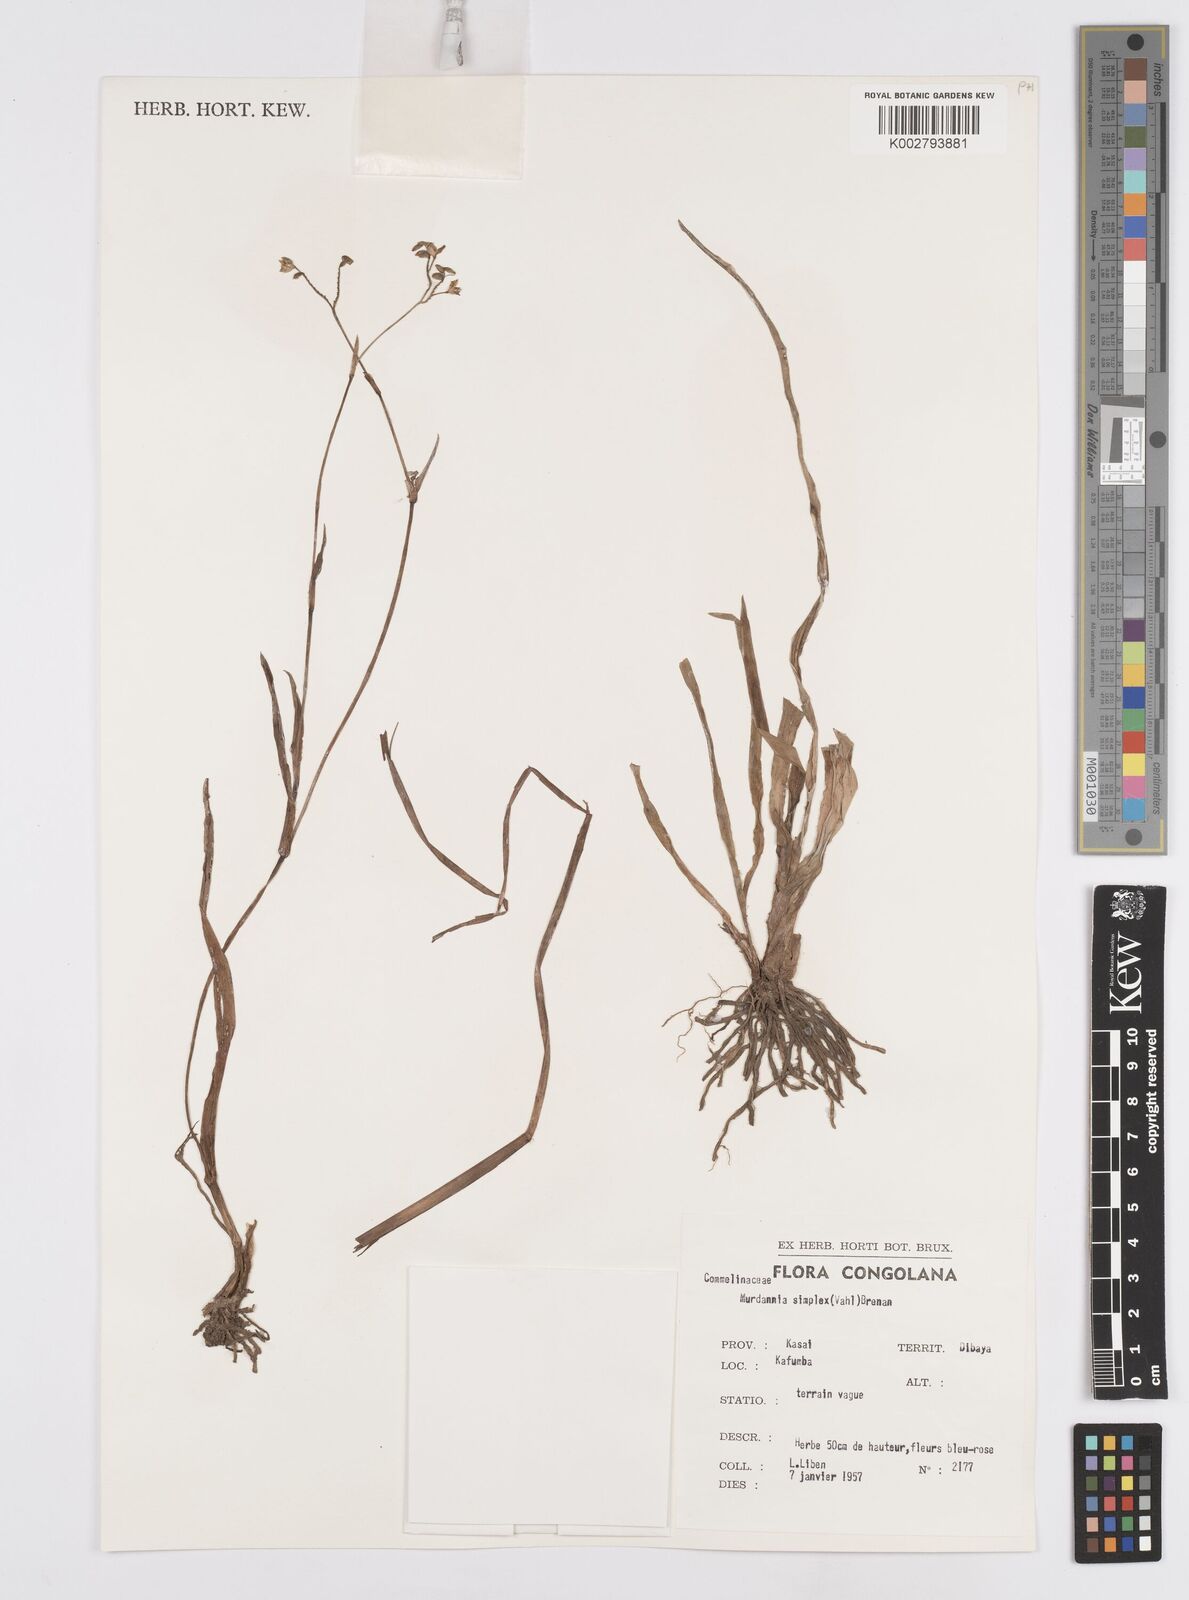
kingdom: Plantae
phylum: Tracheophyta
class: Liliopsida
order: Commelinales
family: Commelinaceae
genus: Murdannia
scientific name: Murdannia simplex
